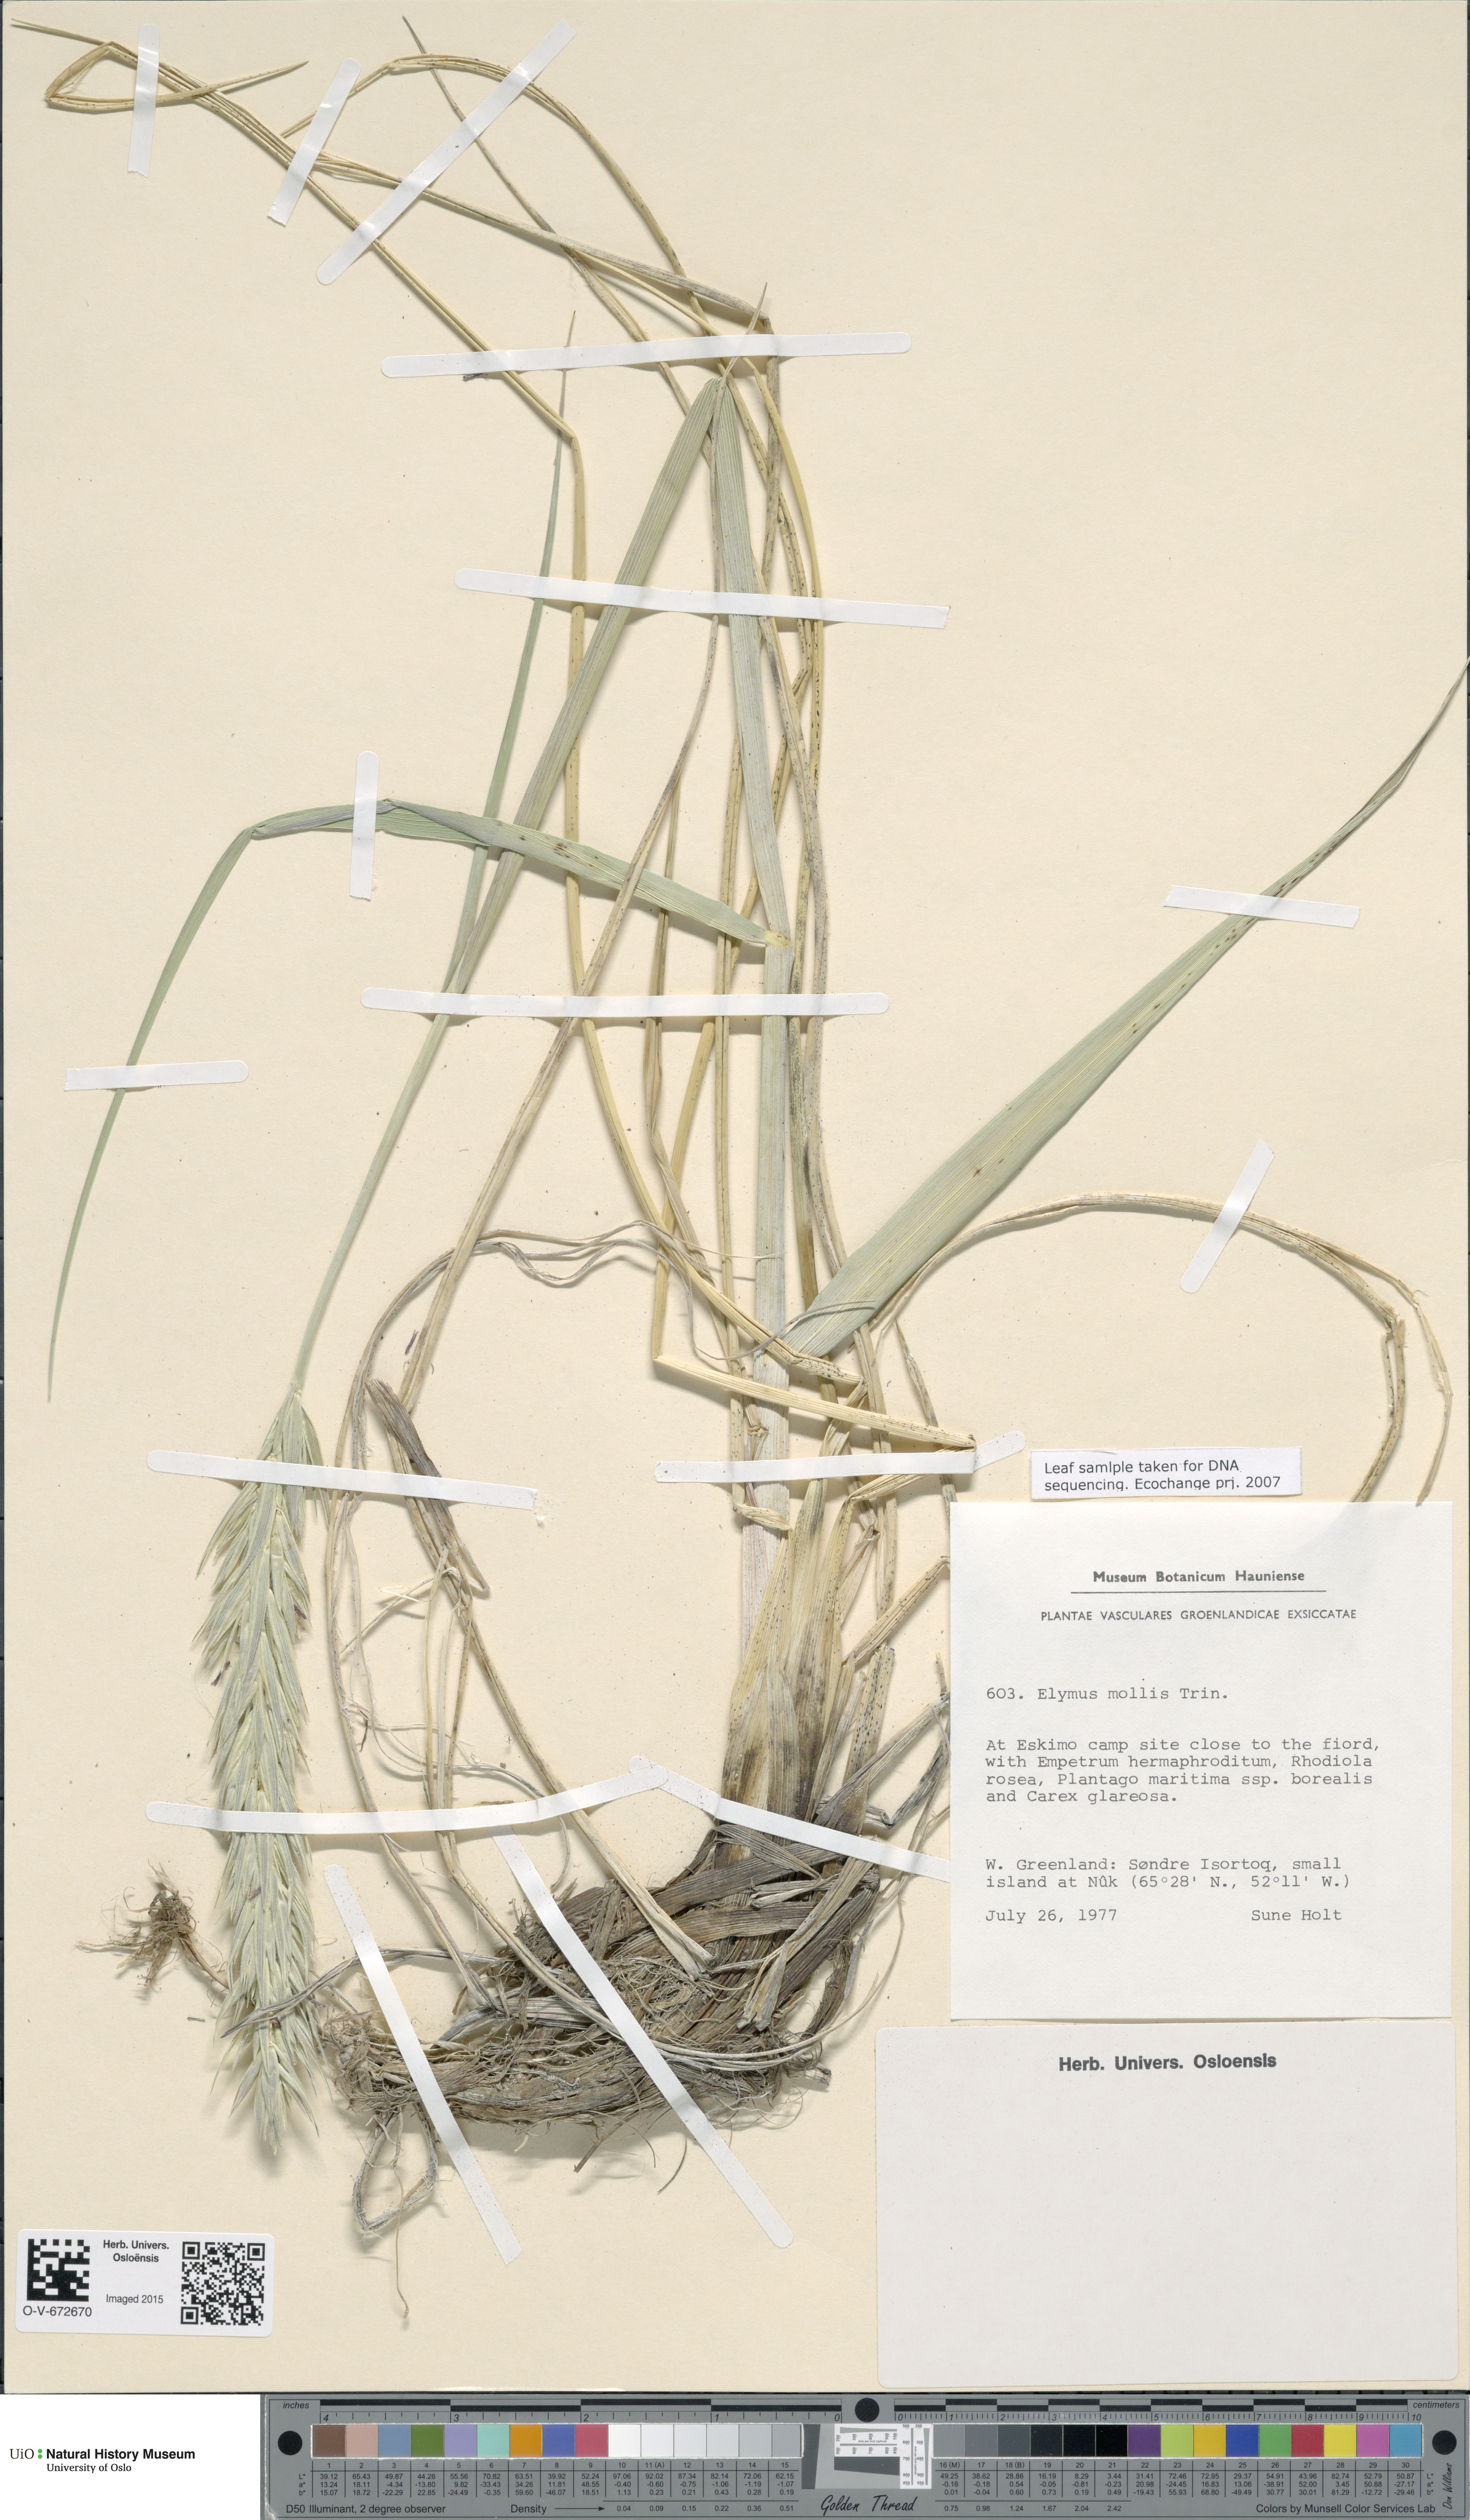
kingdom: Plantae
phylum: Tracheophyta
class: Liliopsida
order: Poales
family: Poaceae
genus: Leymus
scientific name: Leymus mollis
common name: American dune grass
